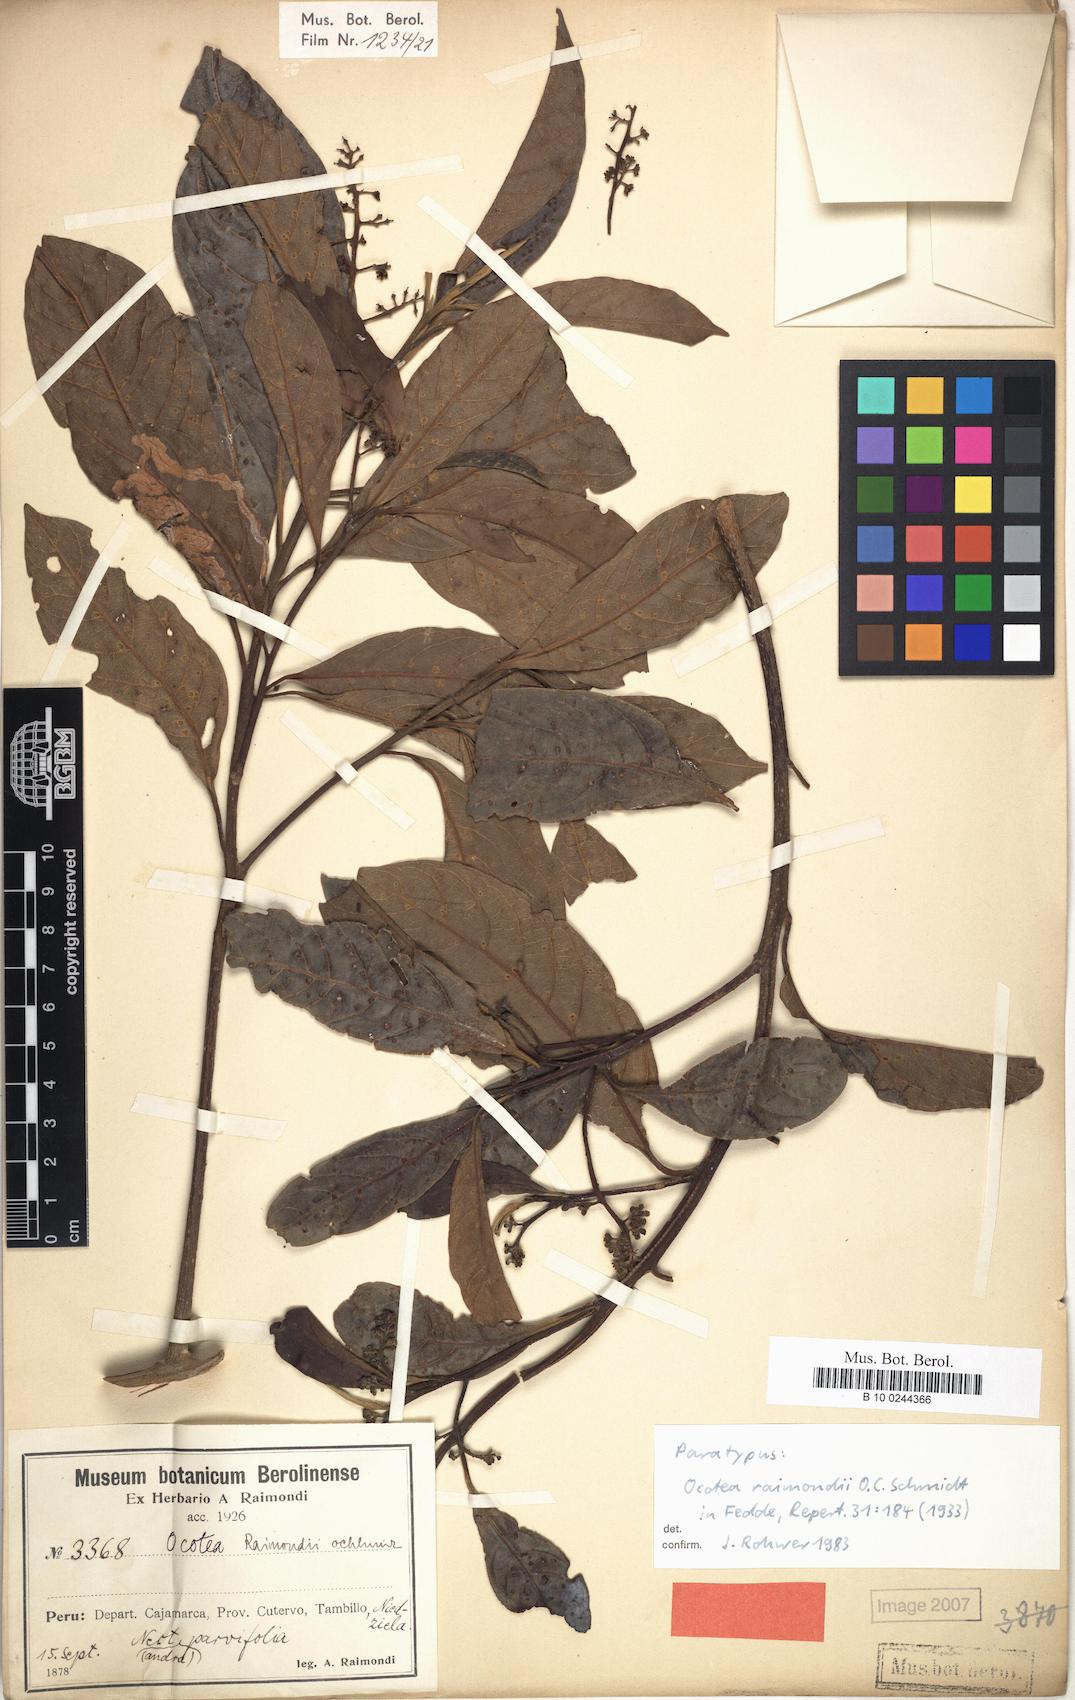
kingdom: Plantae
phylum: Tracheophyta
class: Magnoliopsida
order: Laurales
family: Lauraceae
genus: Ocotea
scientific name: Ocotea cuneifolia
